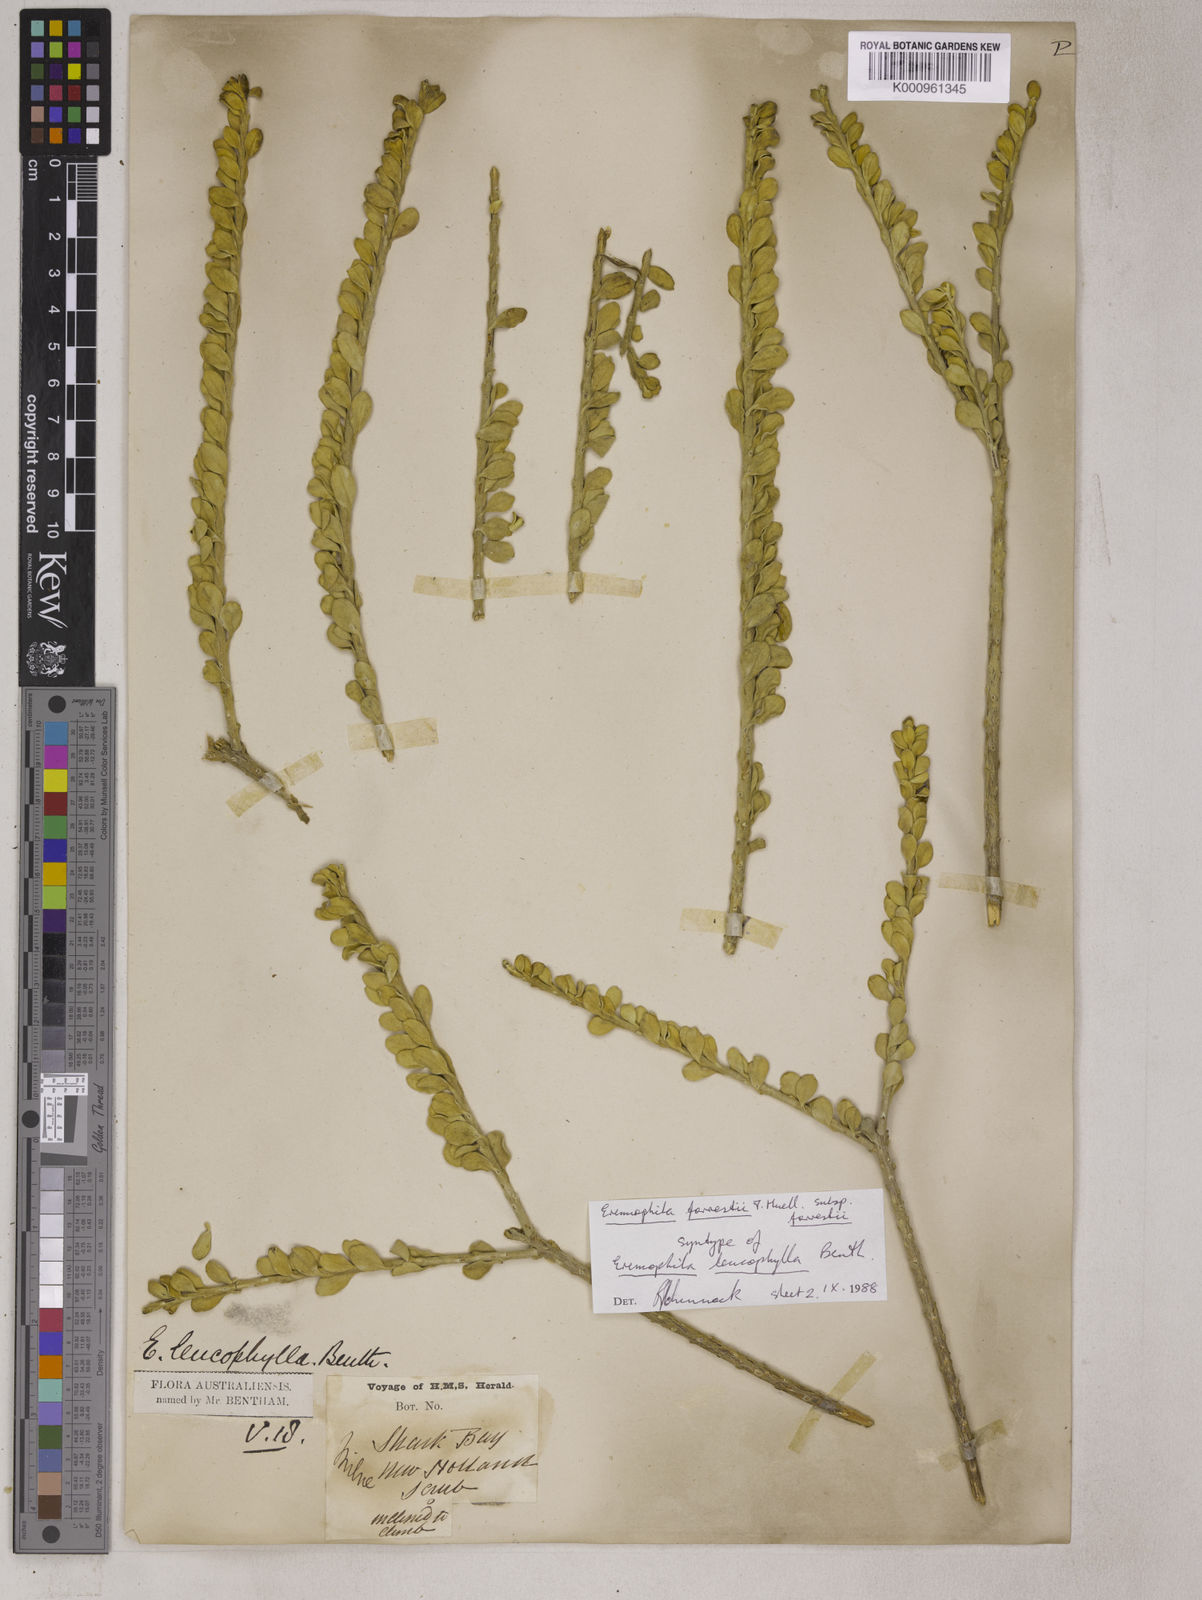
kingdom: Plantae
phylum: Tracheophyta
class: Magnoliopsida
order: Lamiales
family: Scrophulariaceae
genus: Eremophila
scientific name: Eremophila forrestii
